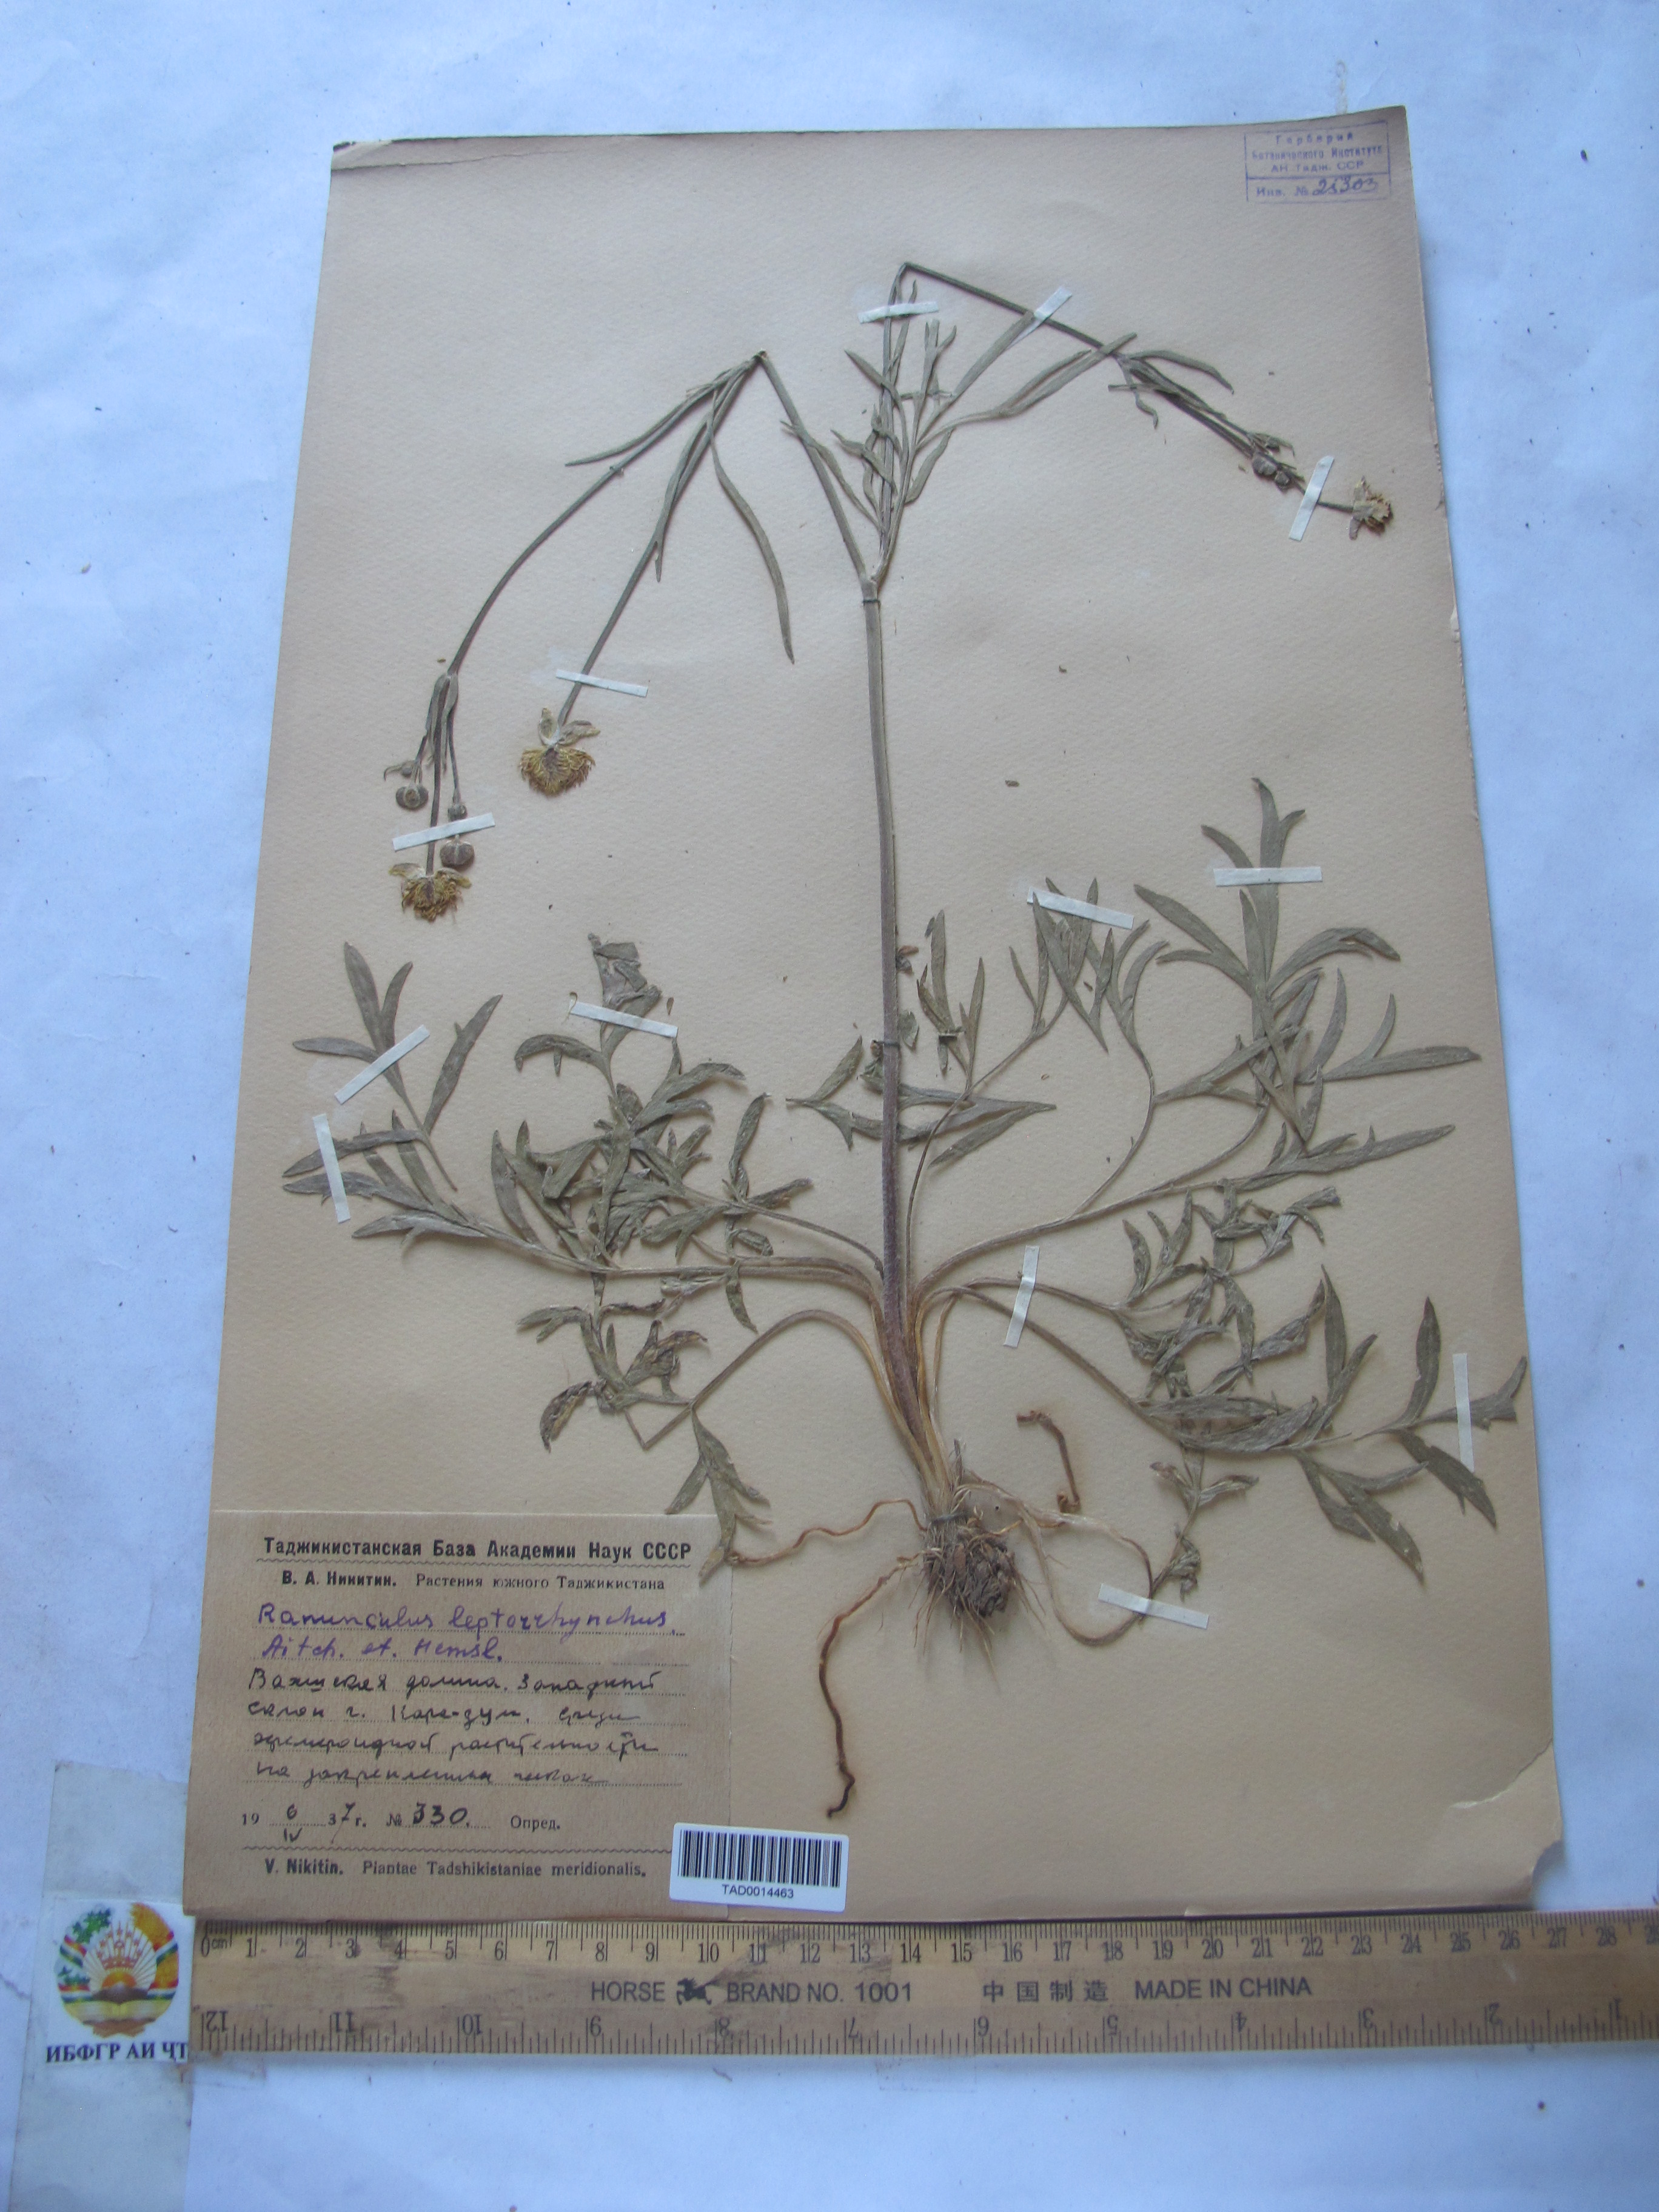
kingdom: Plantae
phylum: Tracheophyta
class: Magnoliopsida
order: Ranunculales
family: Ranunculaceae
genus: Ranunculus
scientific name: Ranunculus leptorrhynchus
